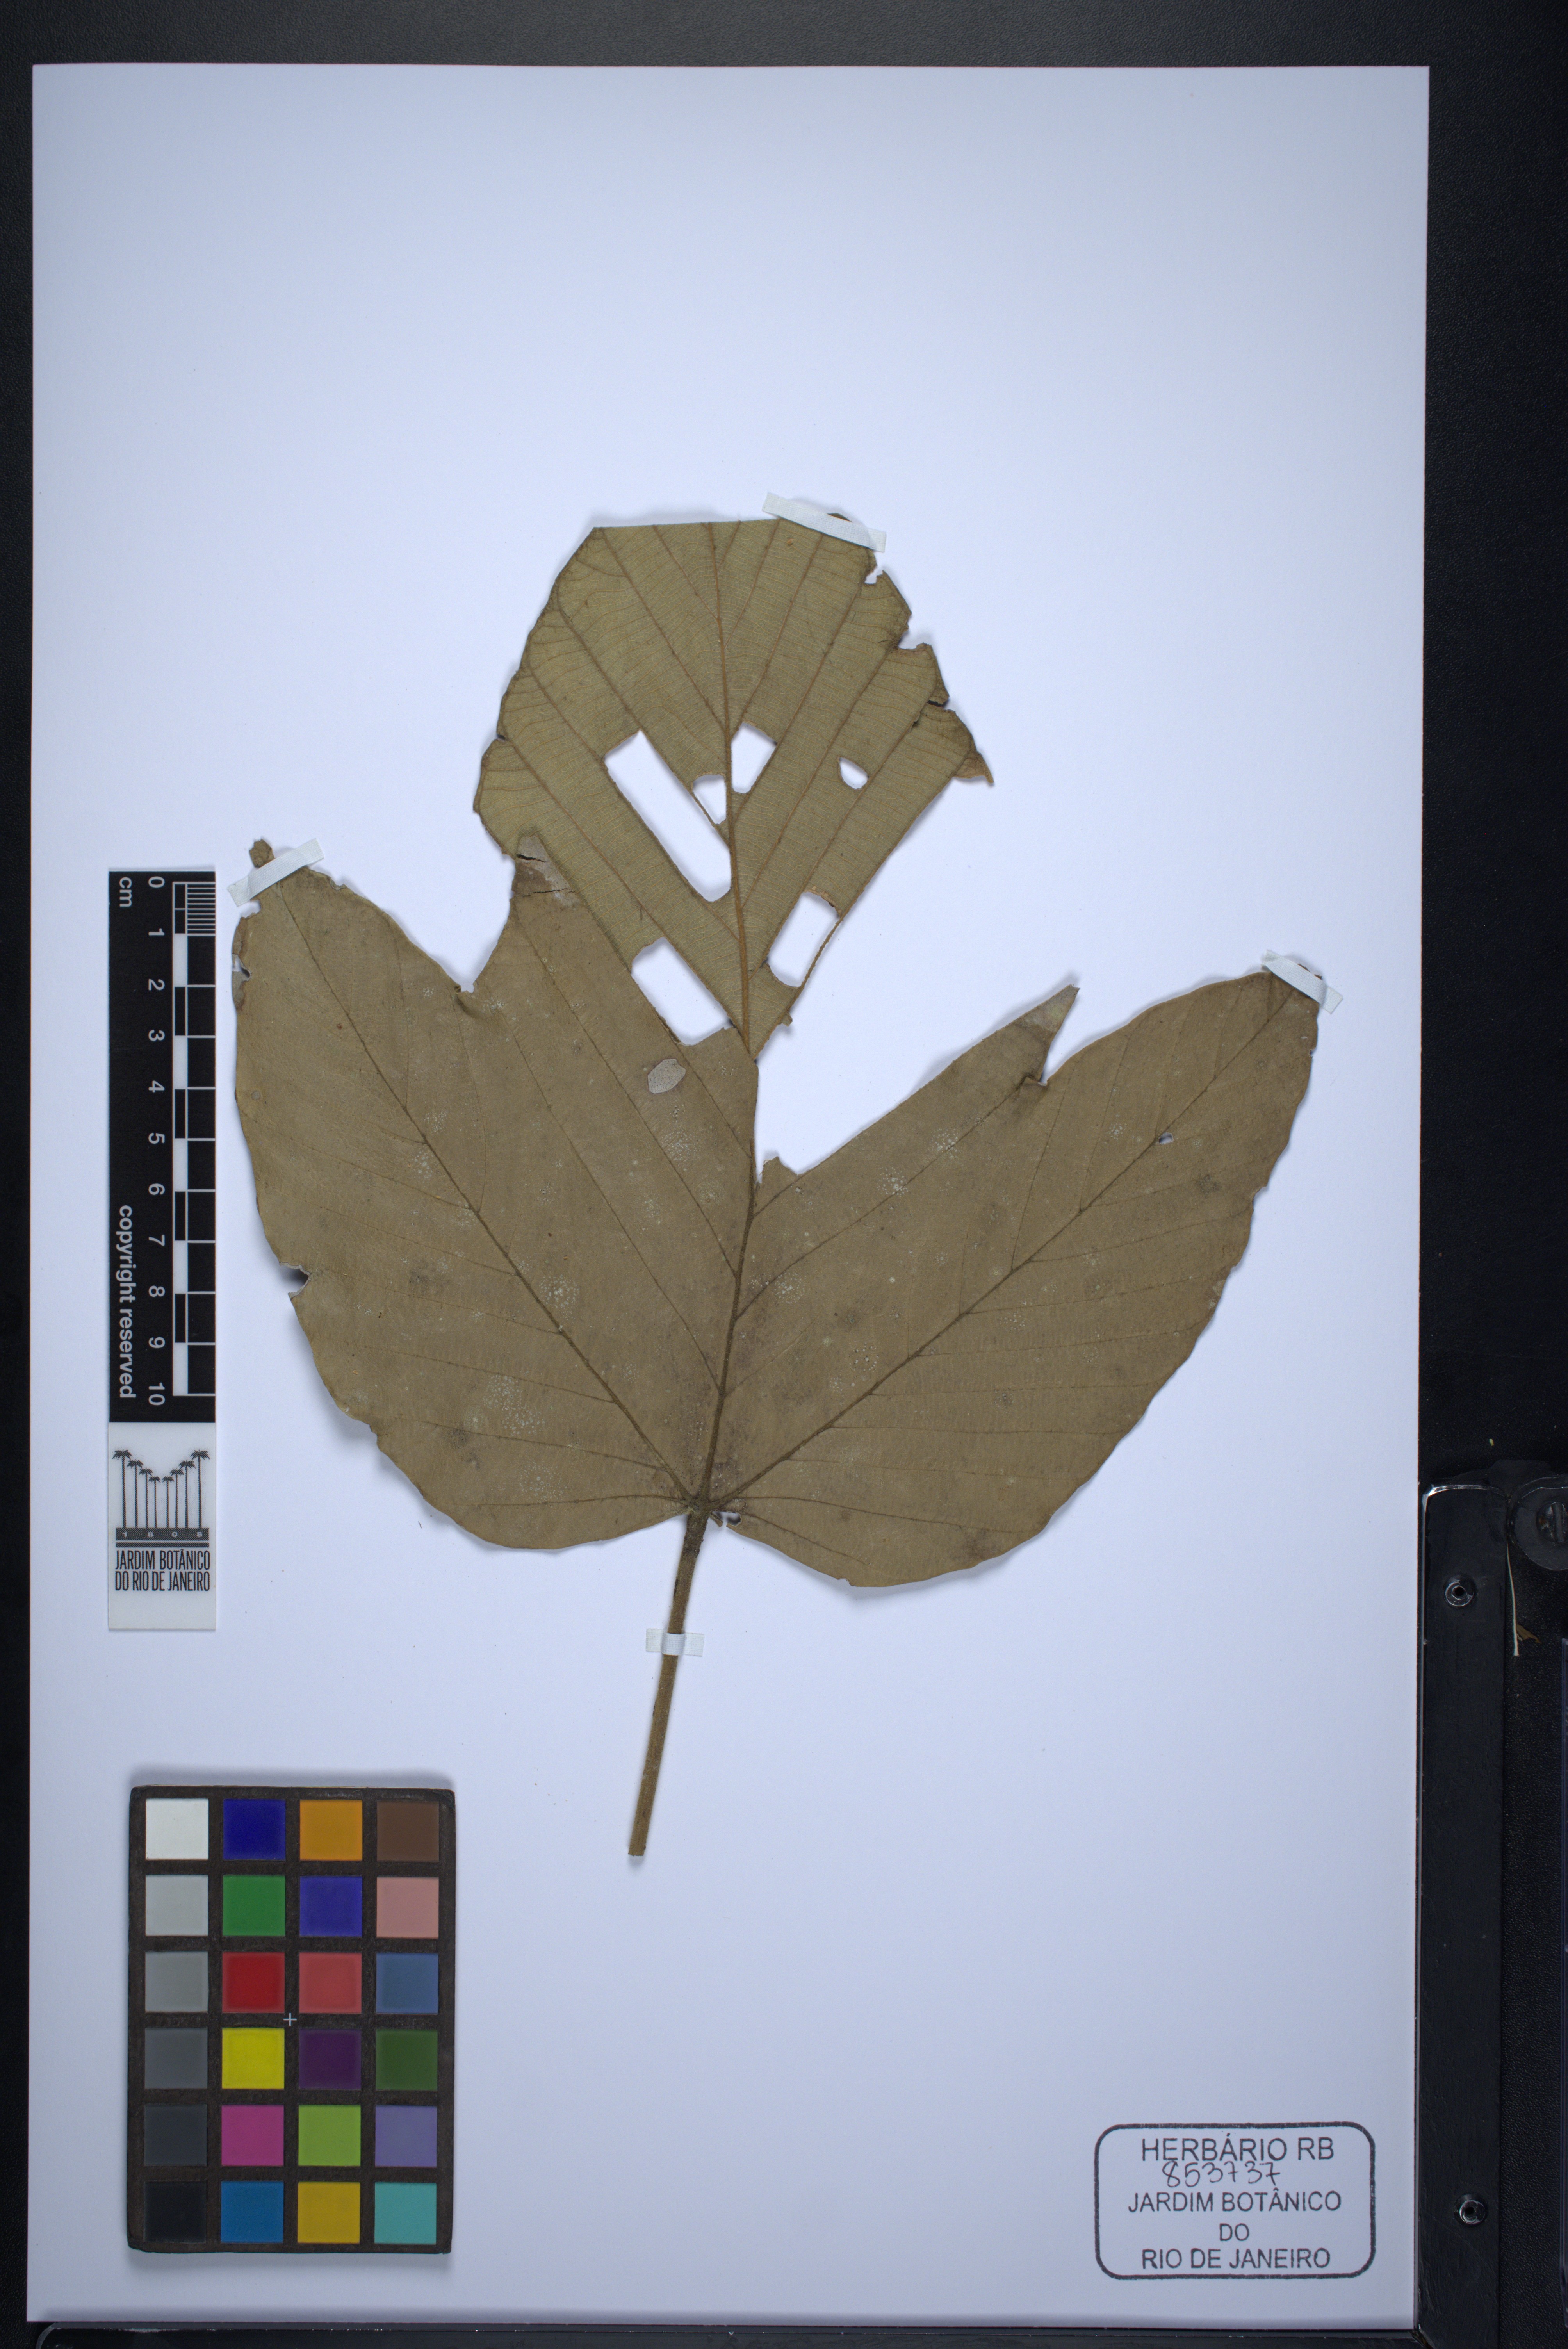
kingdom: Plantae
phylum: Tracheophyta
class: Magnoliopsida
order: Rosales
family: Urticaceae
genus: Pourouma
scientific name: Pourouma guianensis
